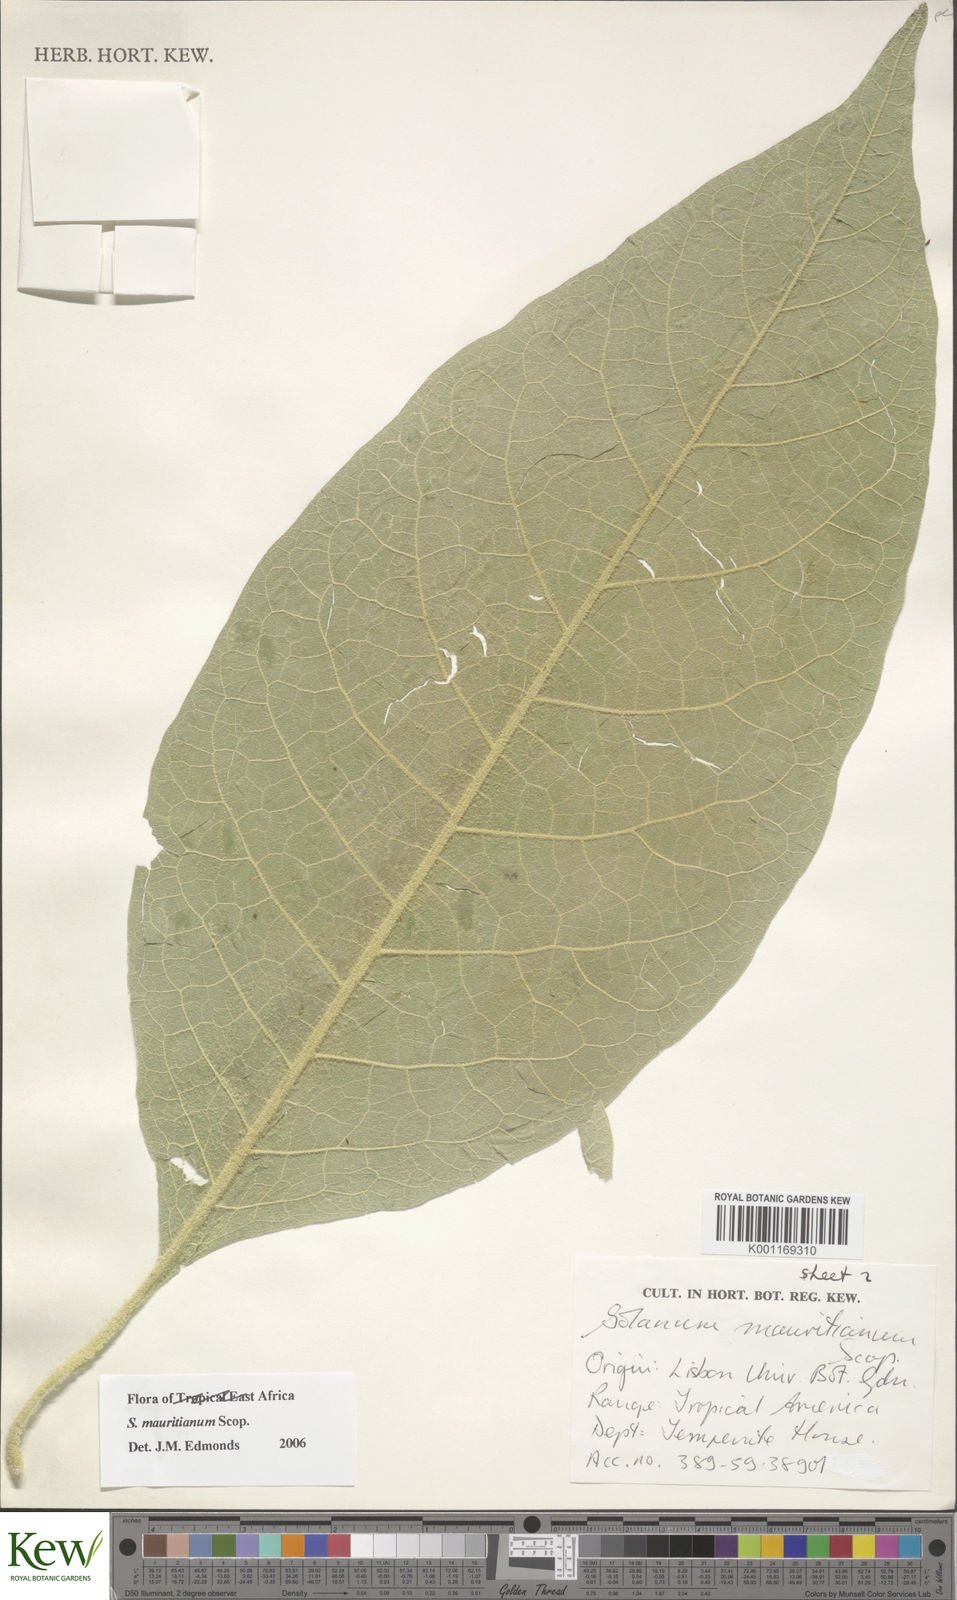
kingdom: Plantae
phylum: Tracheophyta
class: Magnoliopsida
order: Solanales
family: Solanaceae
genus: Solanum
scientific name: Solanum mauritianum
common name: Earleaf nightshade
